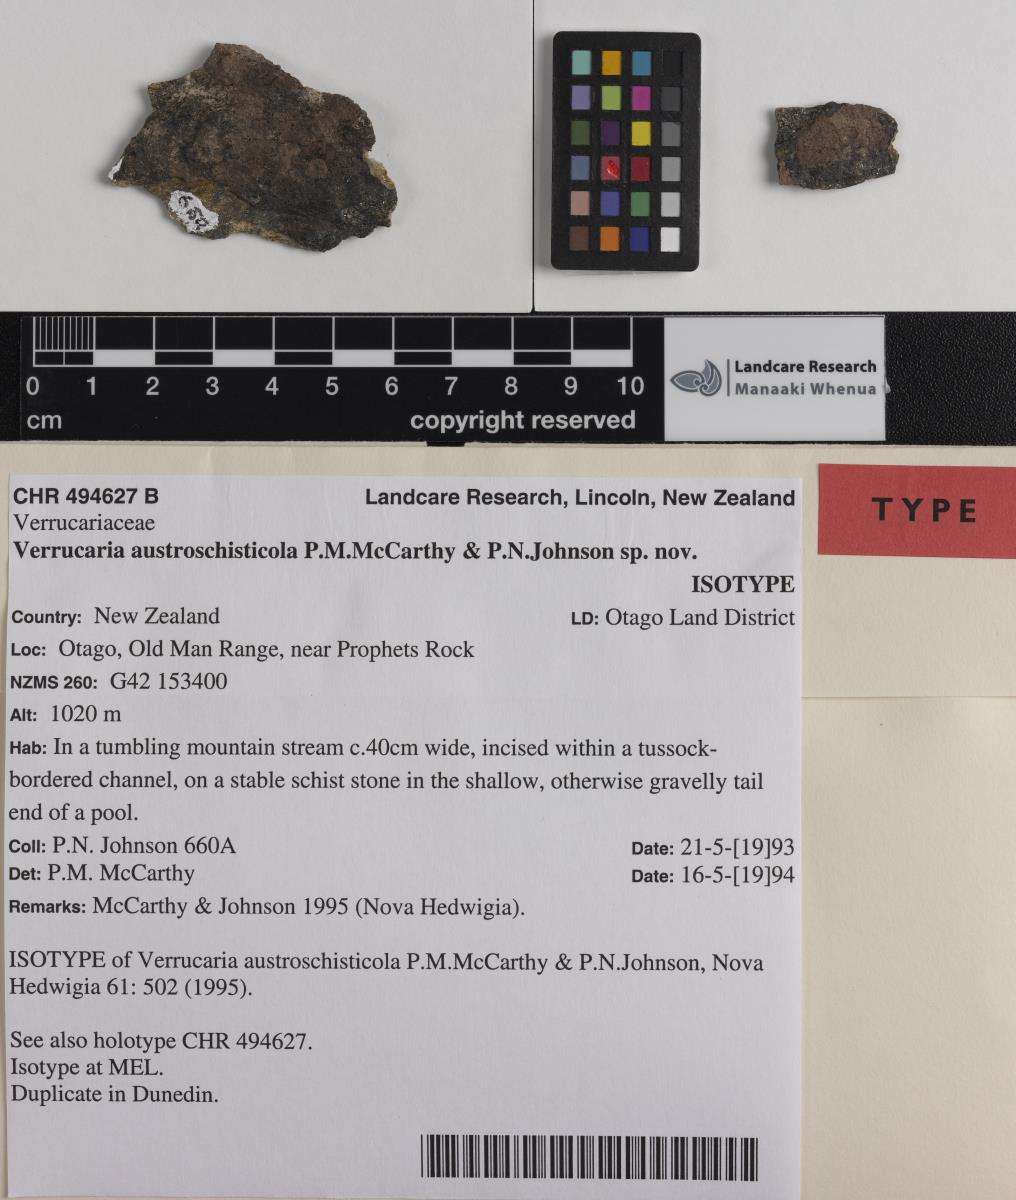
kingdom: Fungi
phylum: Ascomycota
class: Eurotiomycetes
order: Verrucariales
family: Verrucariaceae
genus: Verrucaria
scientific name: Verrucaria
